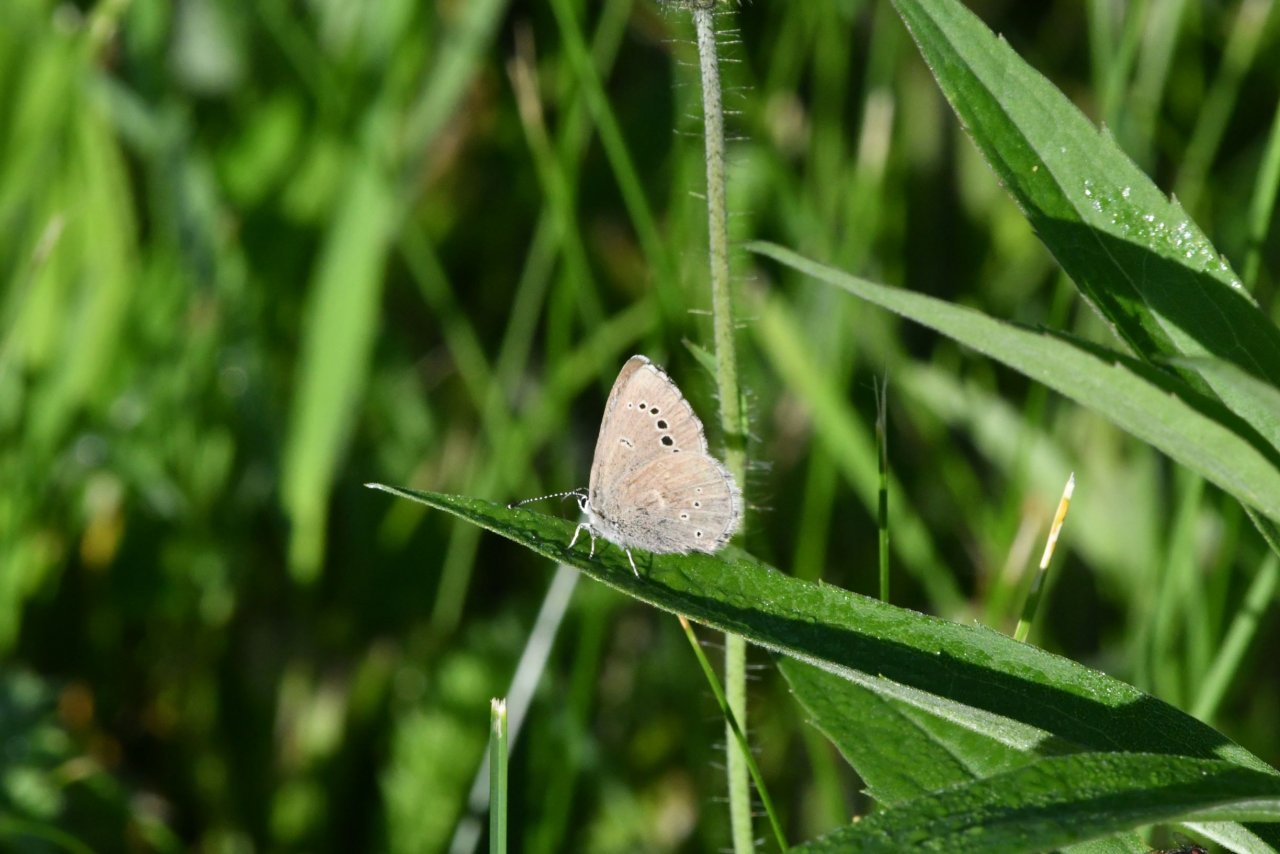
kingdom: Animalia
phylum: Arthropoda
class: Insecta
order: Lepidoptera
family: Lycaenidae
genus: Glaucopsyche
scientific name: Glaucopsyche lygdamus
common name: Silvery Blue
